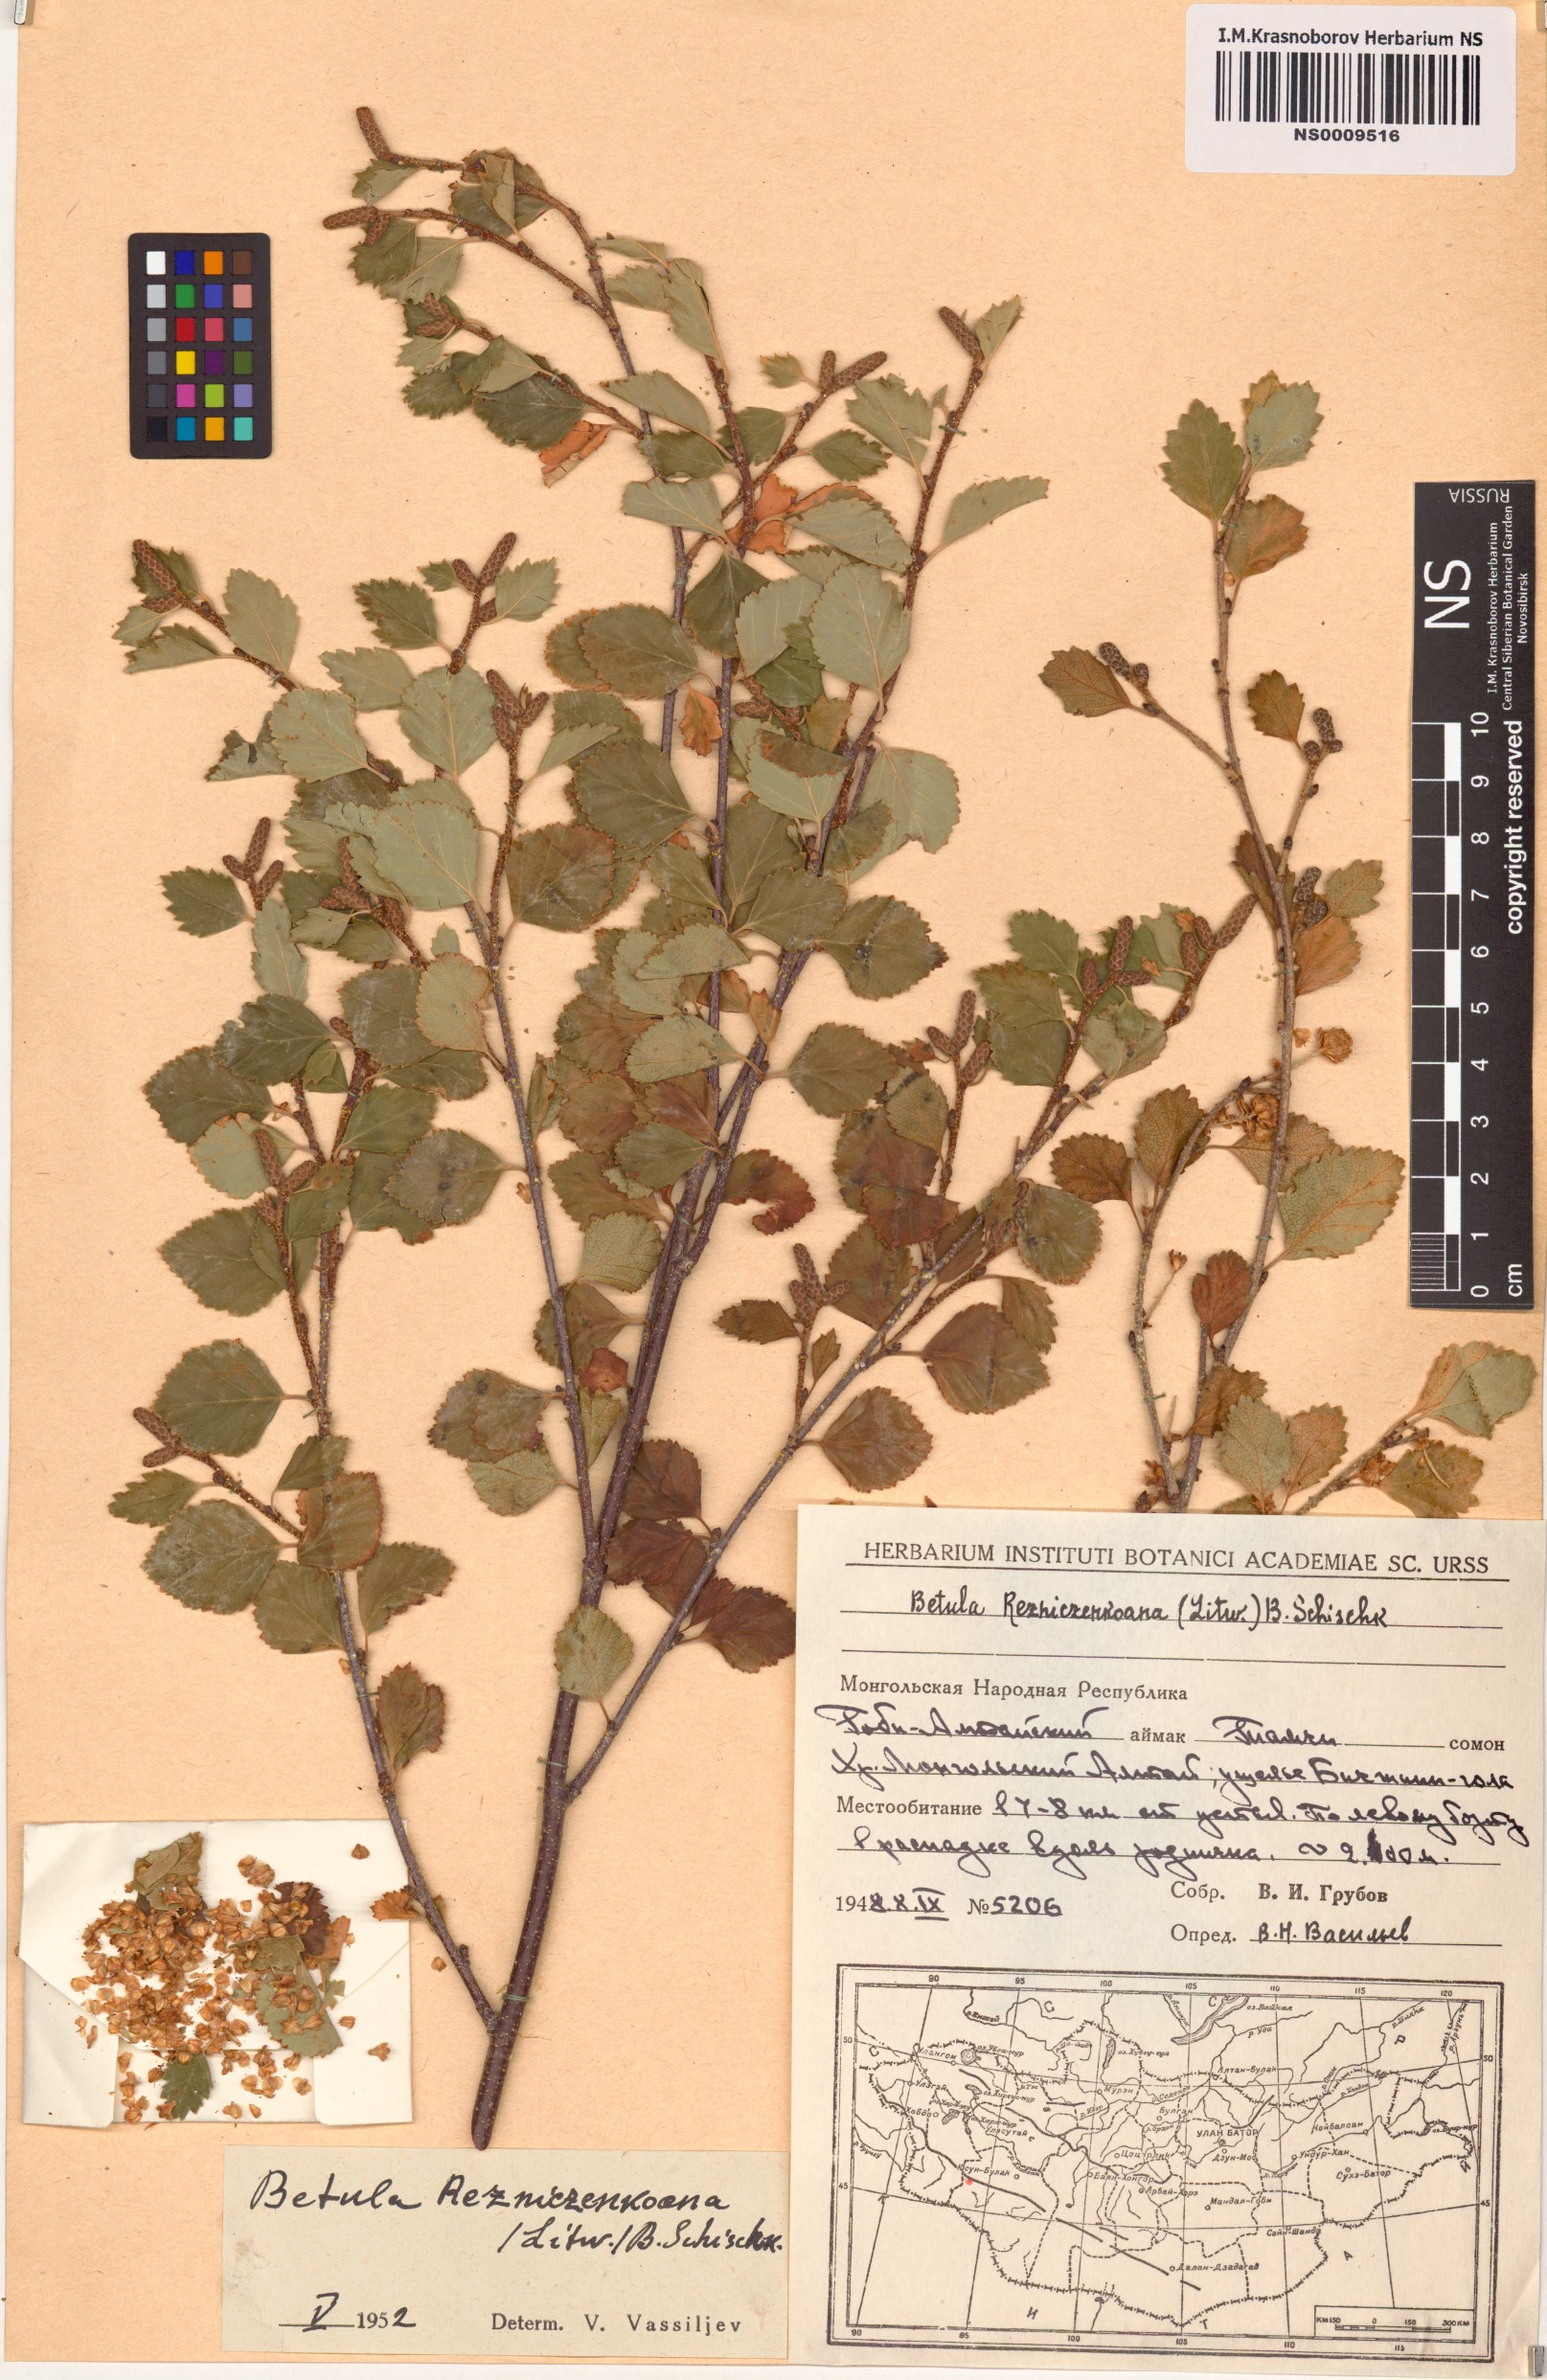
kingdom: Plantae
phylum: Tracheophyta
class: Magnoliopsida
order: Fagales
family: Betulaceae
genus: Betula
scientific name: Betula microphylla
